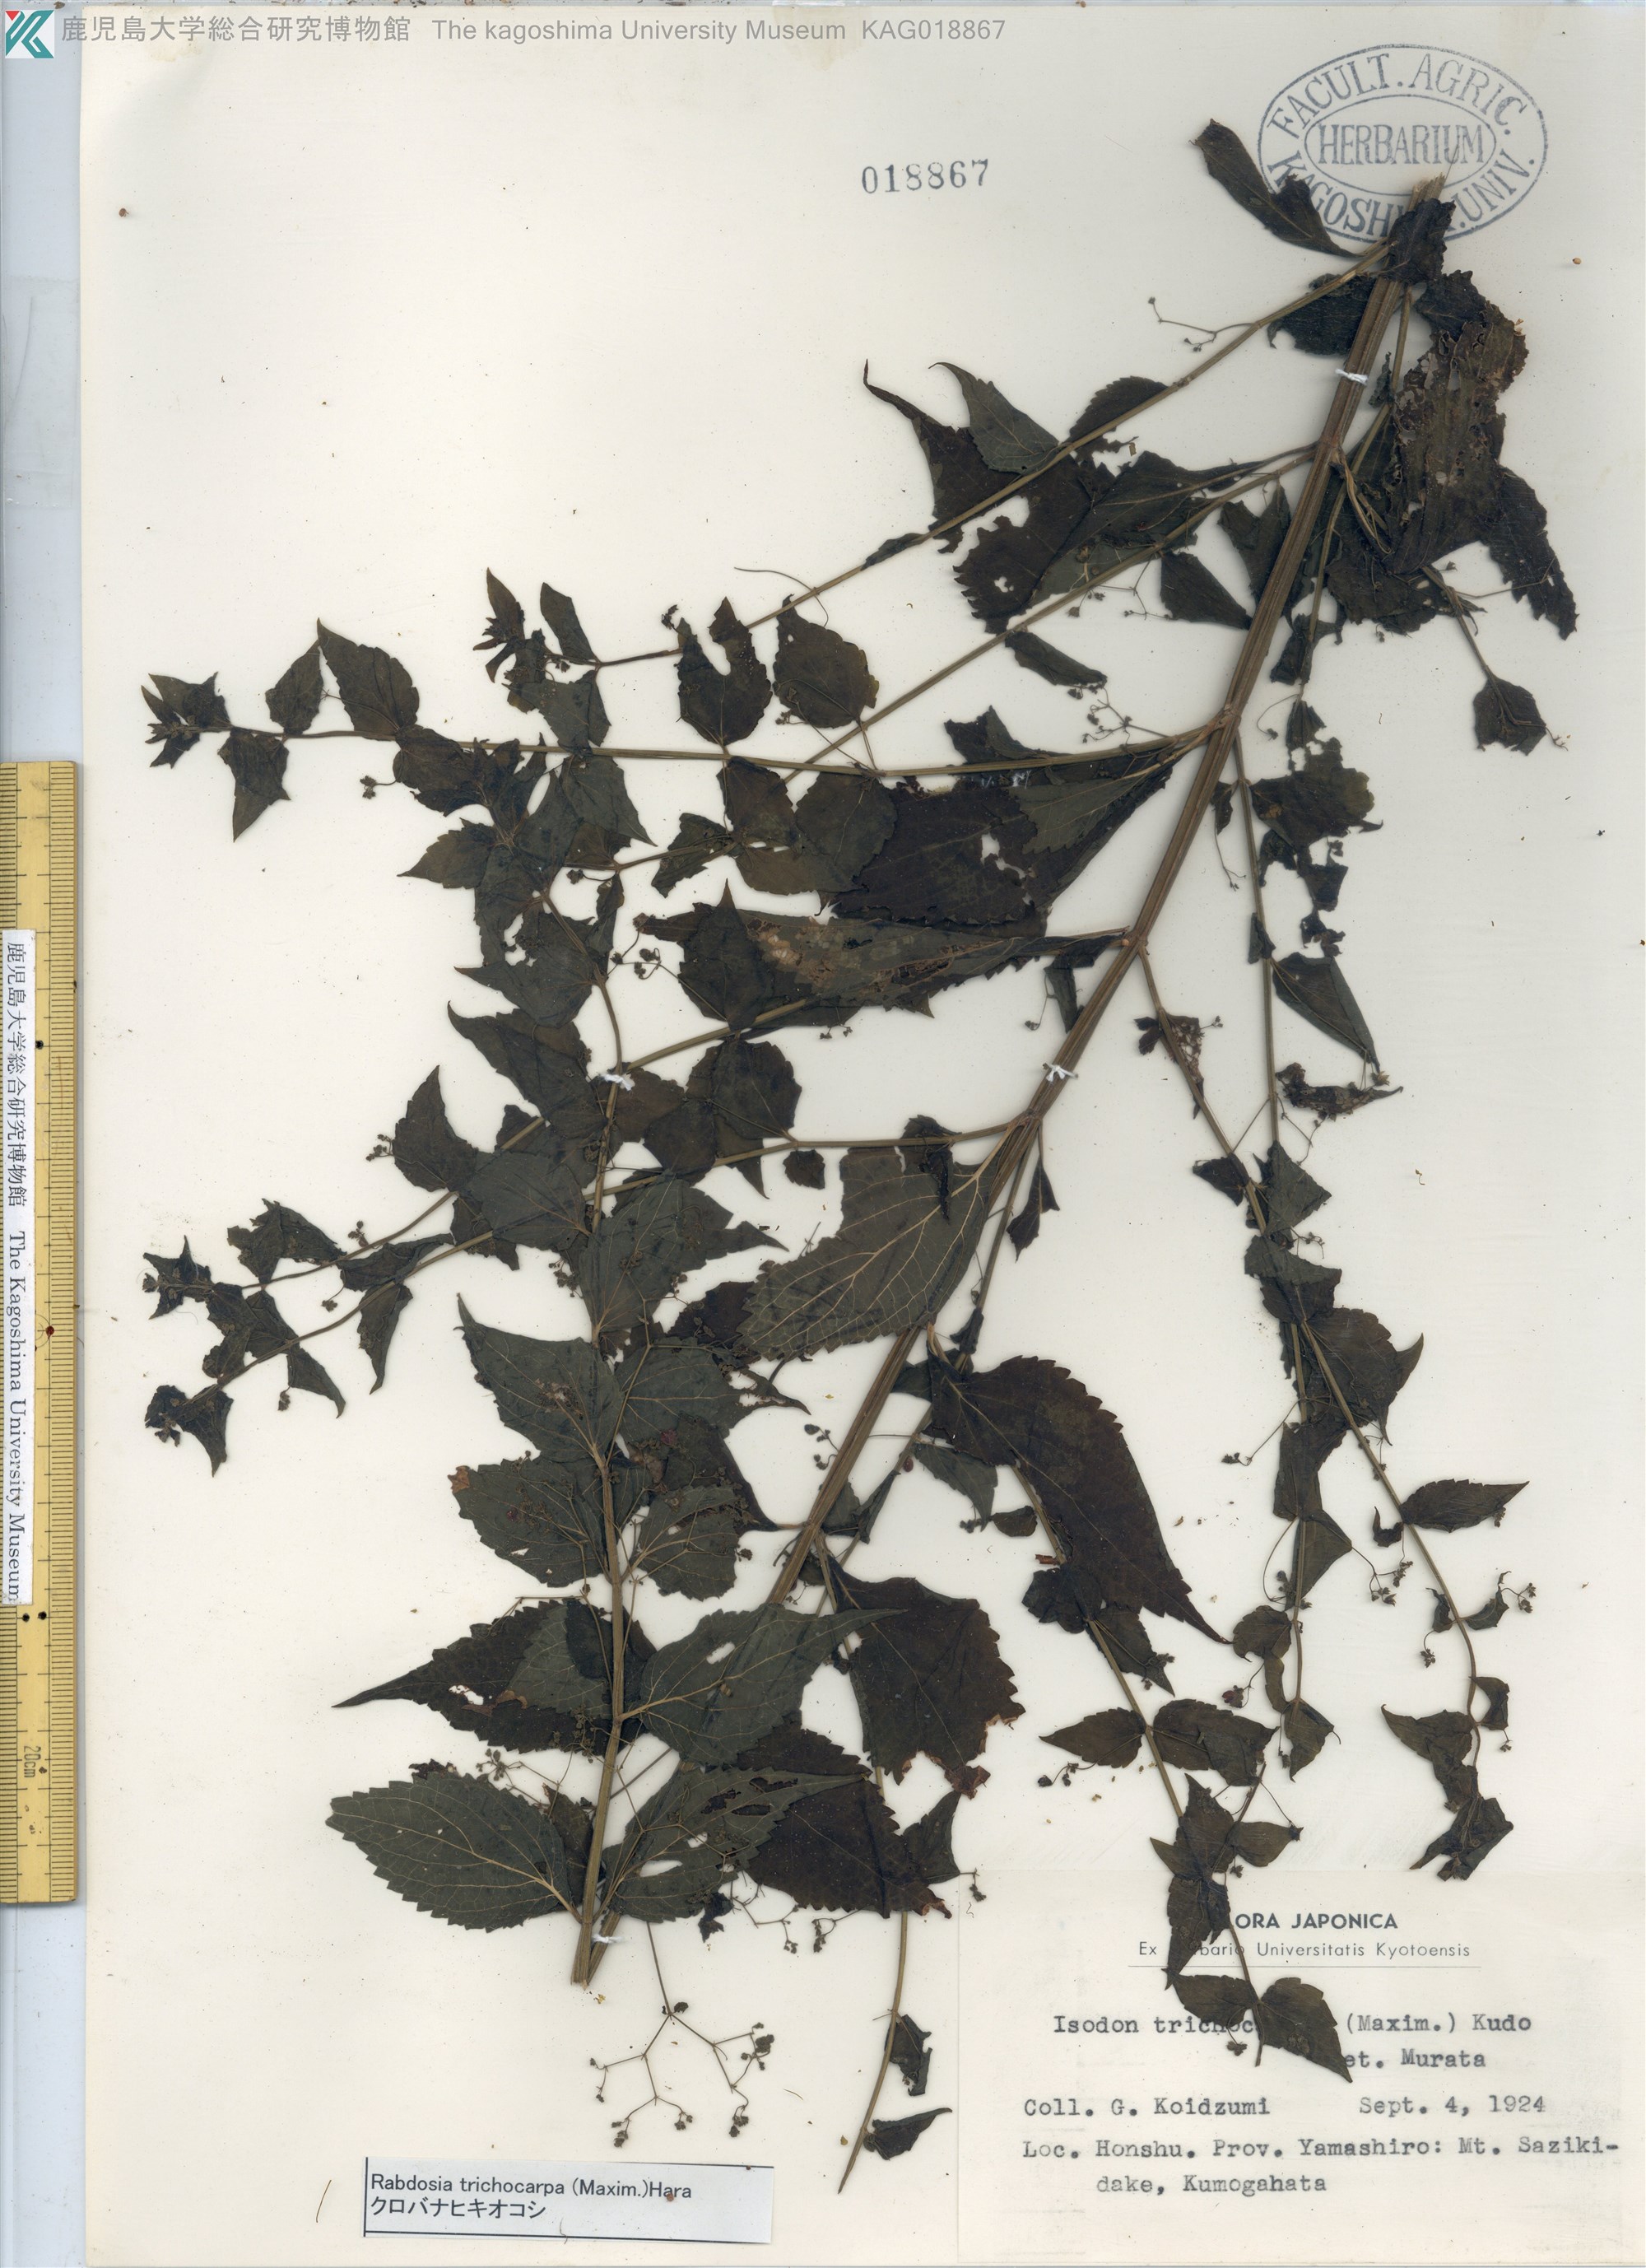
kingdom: Plantae
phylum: Tracheophyta
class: Magnoliopsida
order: Lamiales
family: Lamiaceae
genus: Isodon
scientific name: Isodon trichocarpus
